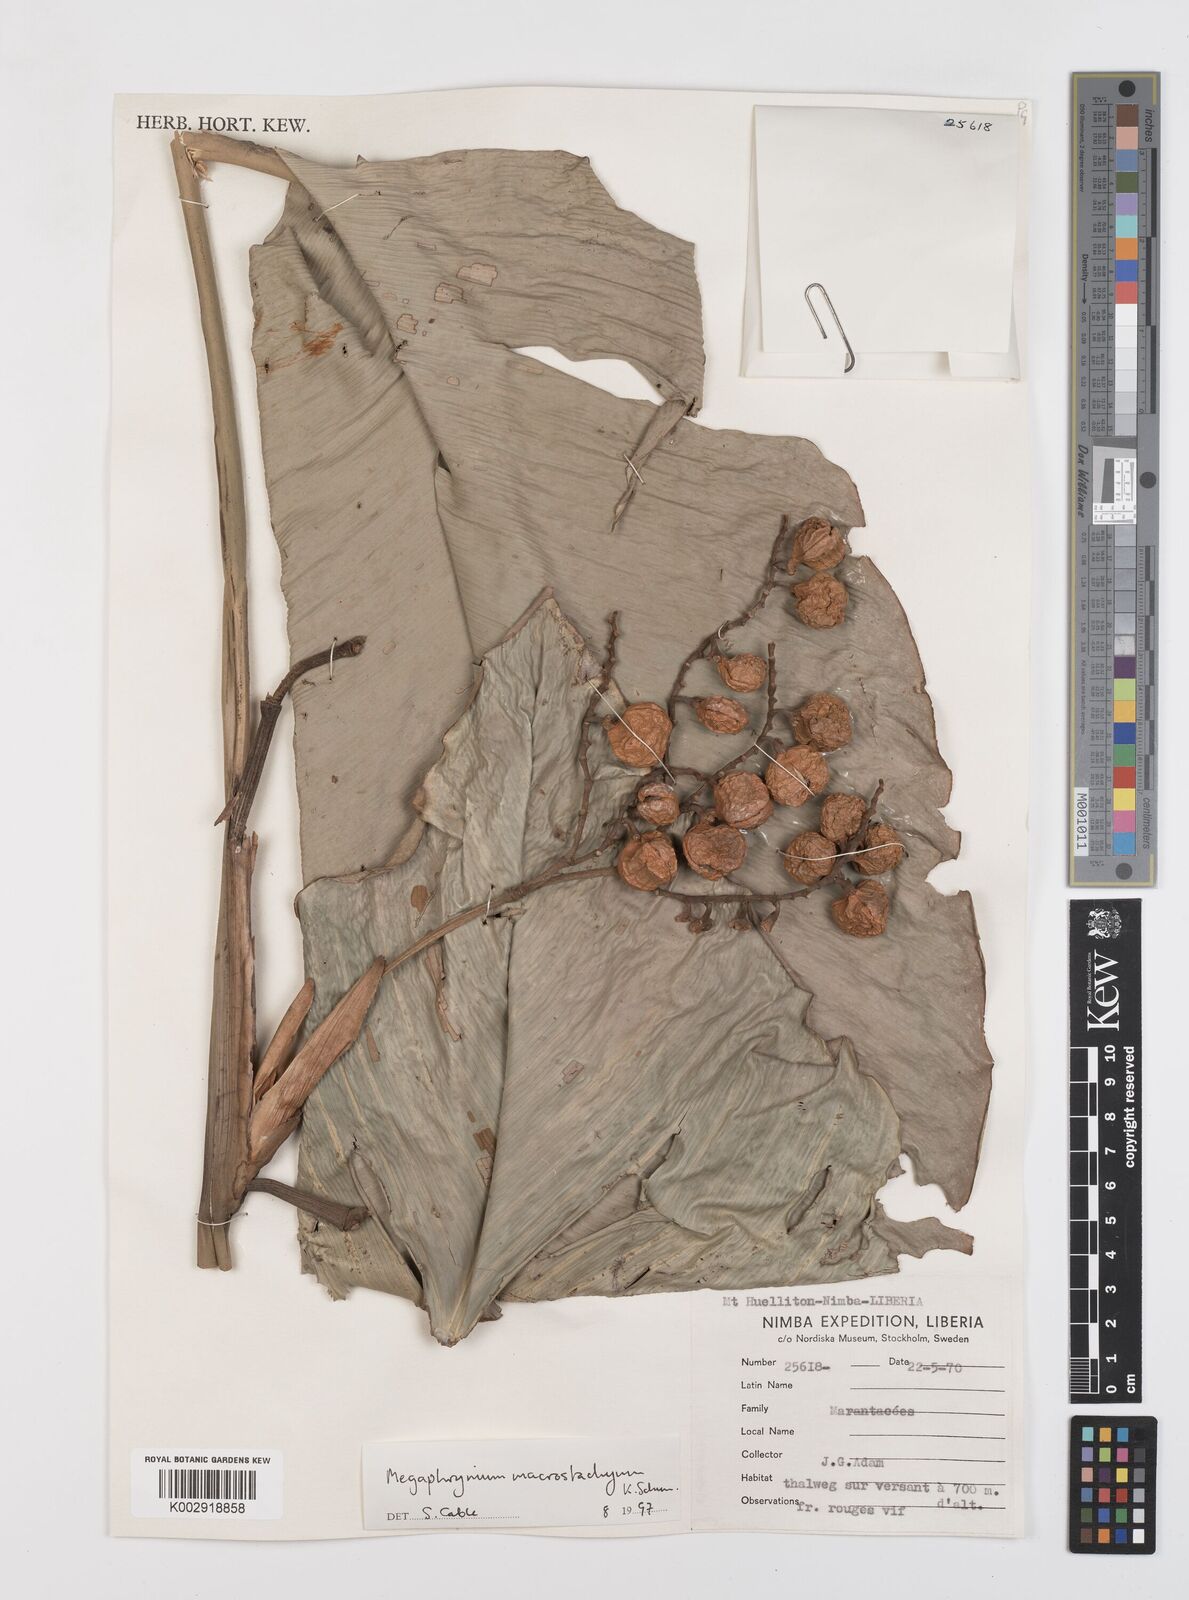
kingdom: Plantae
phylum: Tracheophyta
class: Liliopsida
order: Zingiberales
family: Marantaceae
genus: Megaphrynium
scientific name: Megaphrynium macrostachyum
